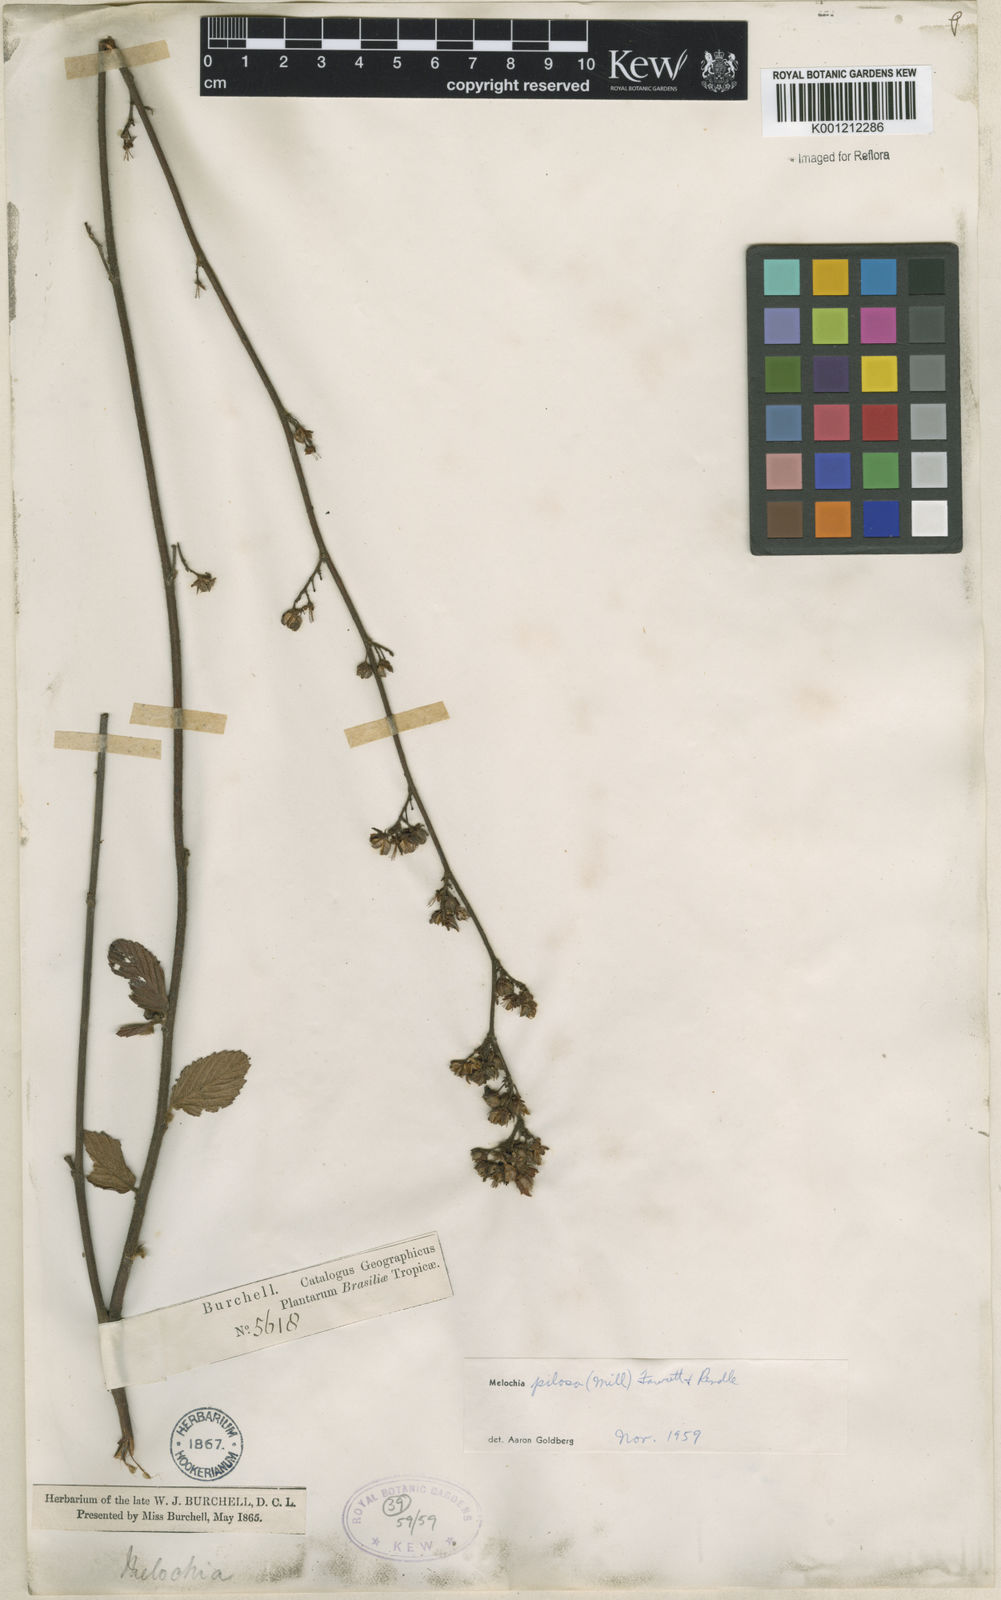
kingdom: Plantae
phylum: Tracheophyta
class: Magnoliopsida
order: Malvales
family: Malvaceae
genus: Melochia
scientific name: Melochia pilosa
